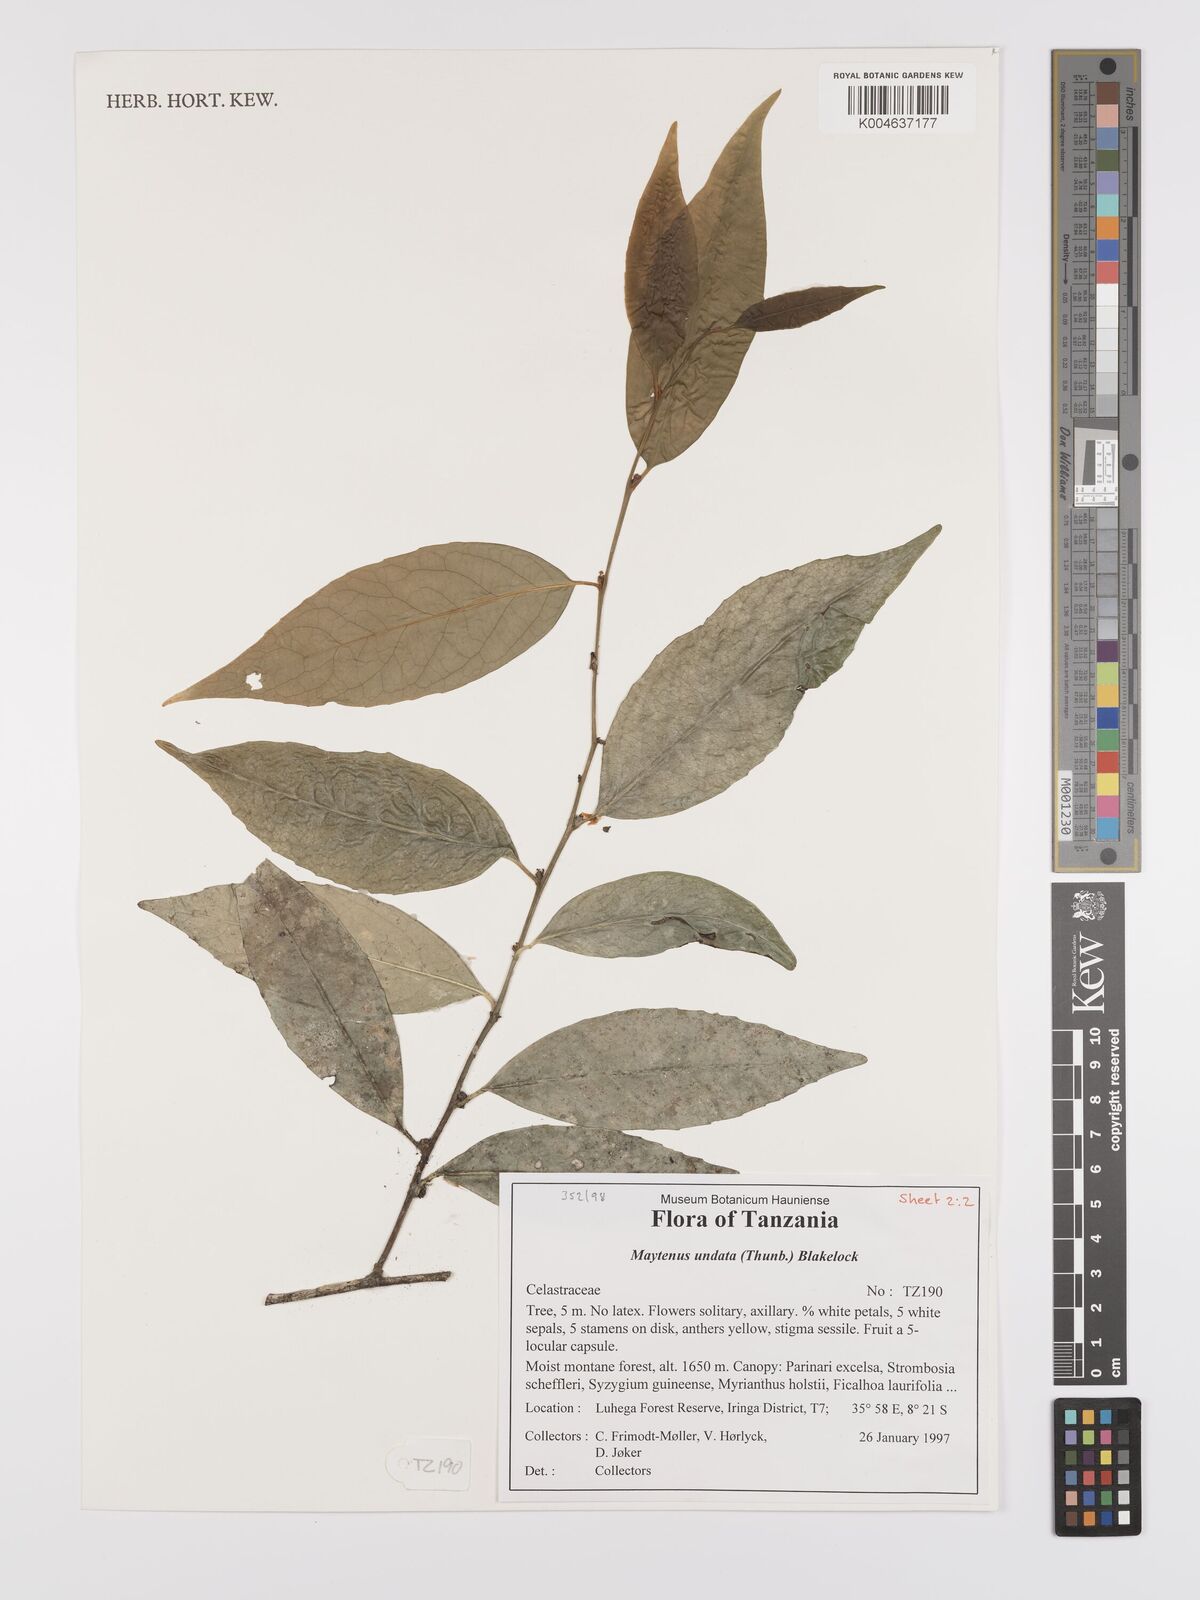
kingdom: Plantae
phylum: Tracheophyta
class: Magnoliopsida
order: Celastrales
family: Celastraceae
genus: Gymnosporia
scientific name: Gymnosporia undata
